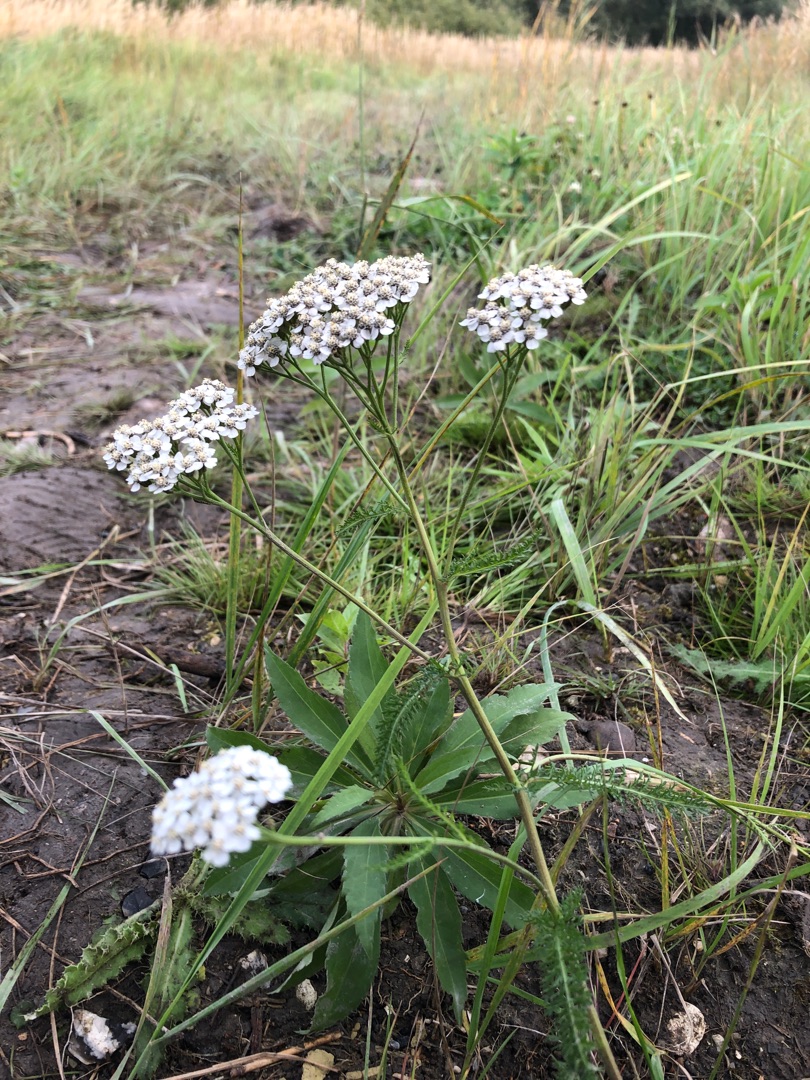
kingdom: Plantae
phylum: Tracheophyta
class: Magnoliopsida
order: Asterales
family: Asteraceae
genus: Achillea
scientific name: Achillea millefolium
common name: Almindelig røllike
